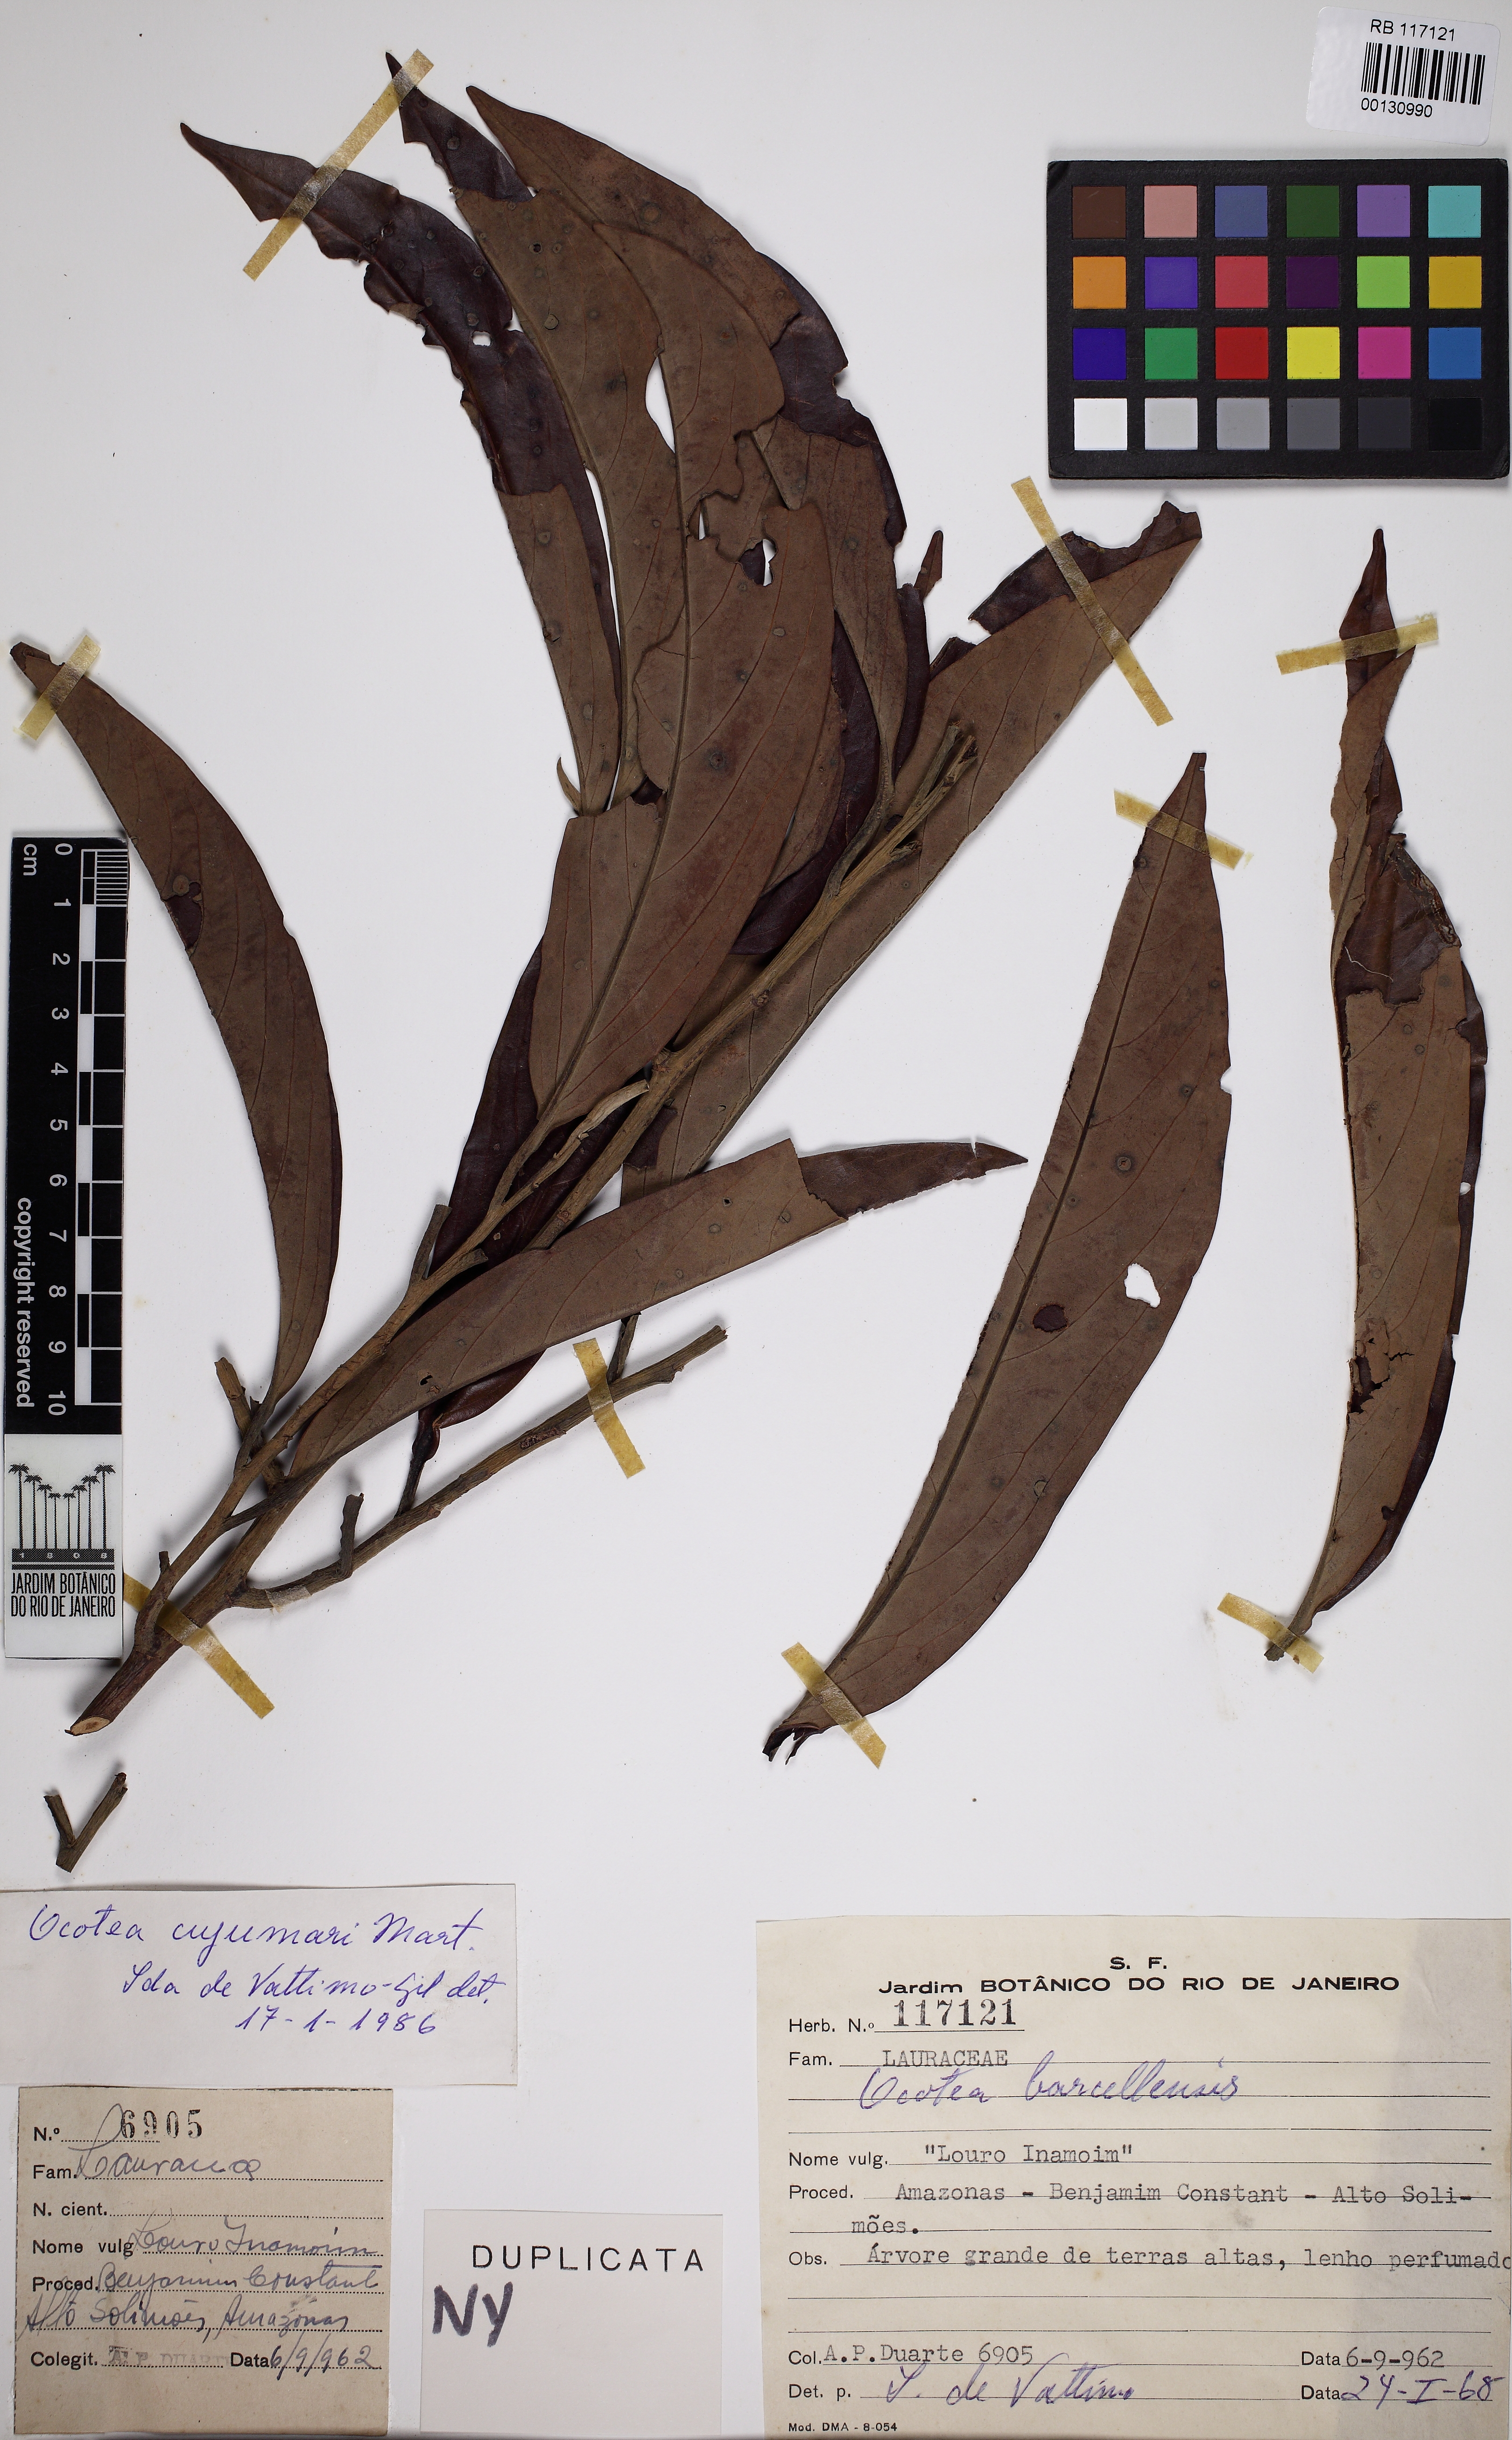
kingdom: Plantae
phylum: Tracheophyta
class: Magnoliopsida
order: Laurales
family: Lauraceae
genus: Ocotea
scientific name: Ocotea cujumary
